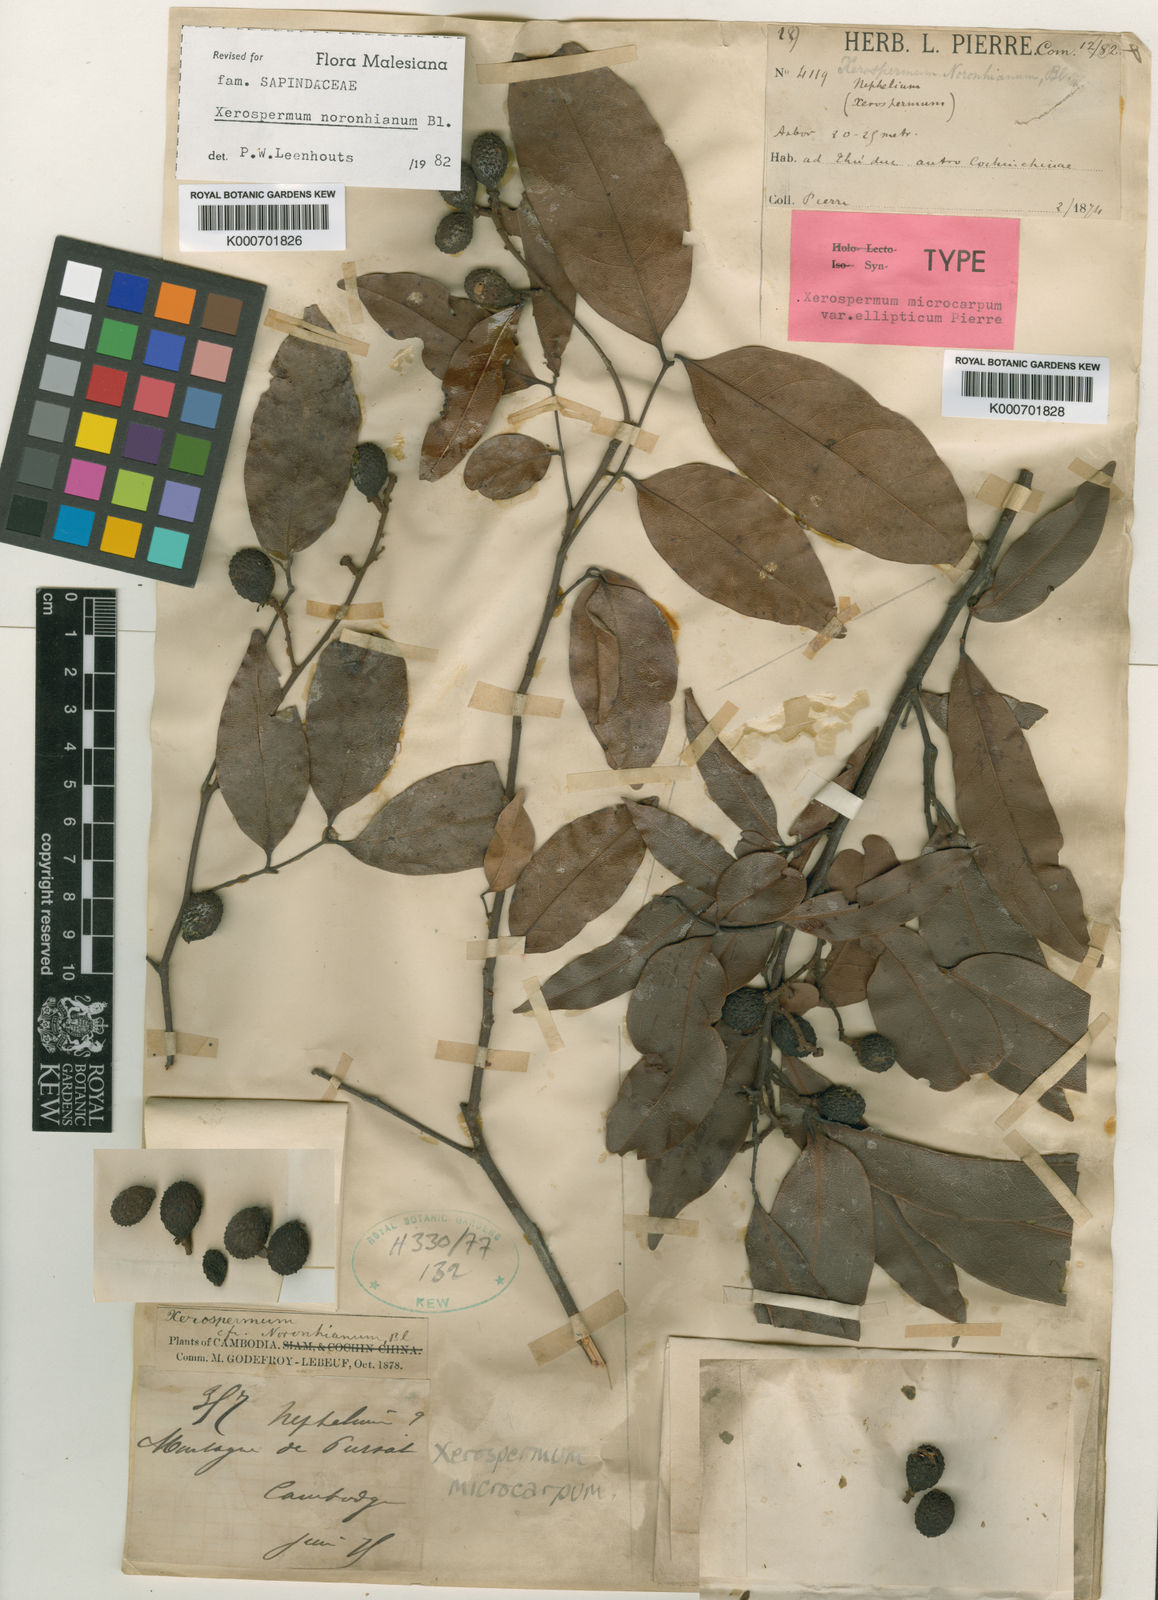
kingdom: Plantae
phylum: Tracheophyta
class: Magnoliopsida
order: Sapindales
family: Sapindaceae
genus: Xerospermum
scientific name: Xerospermum noronhianum
